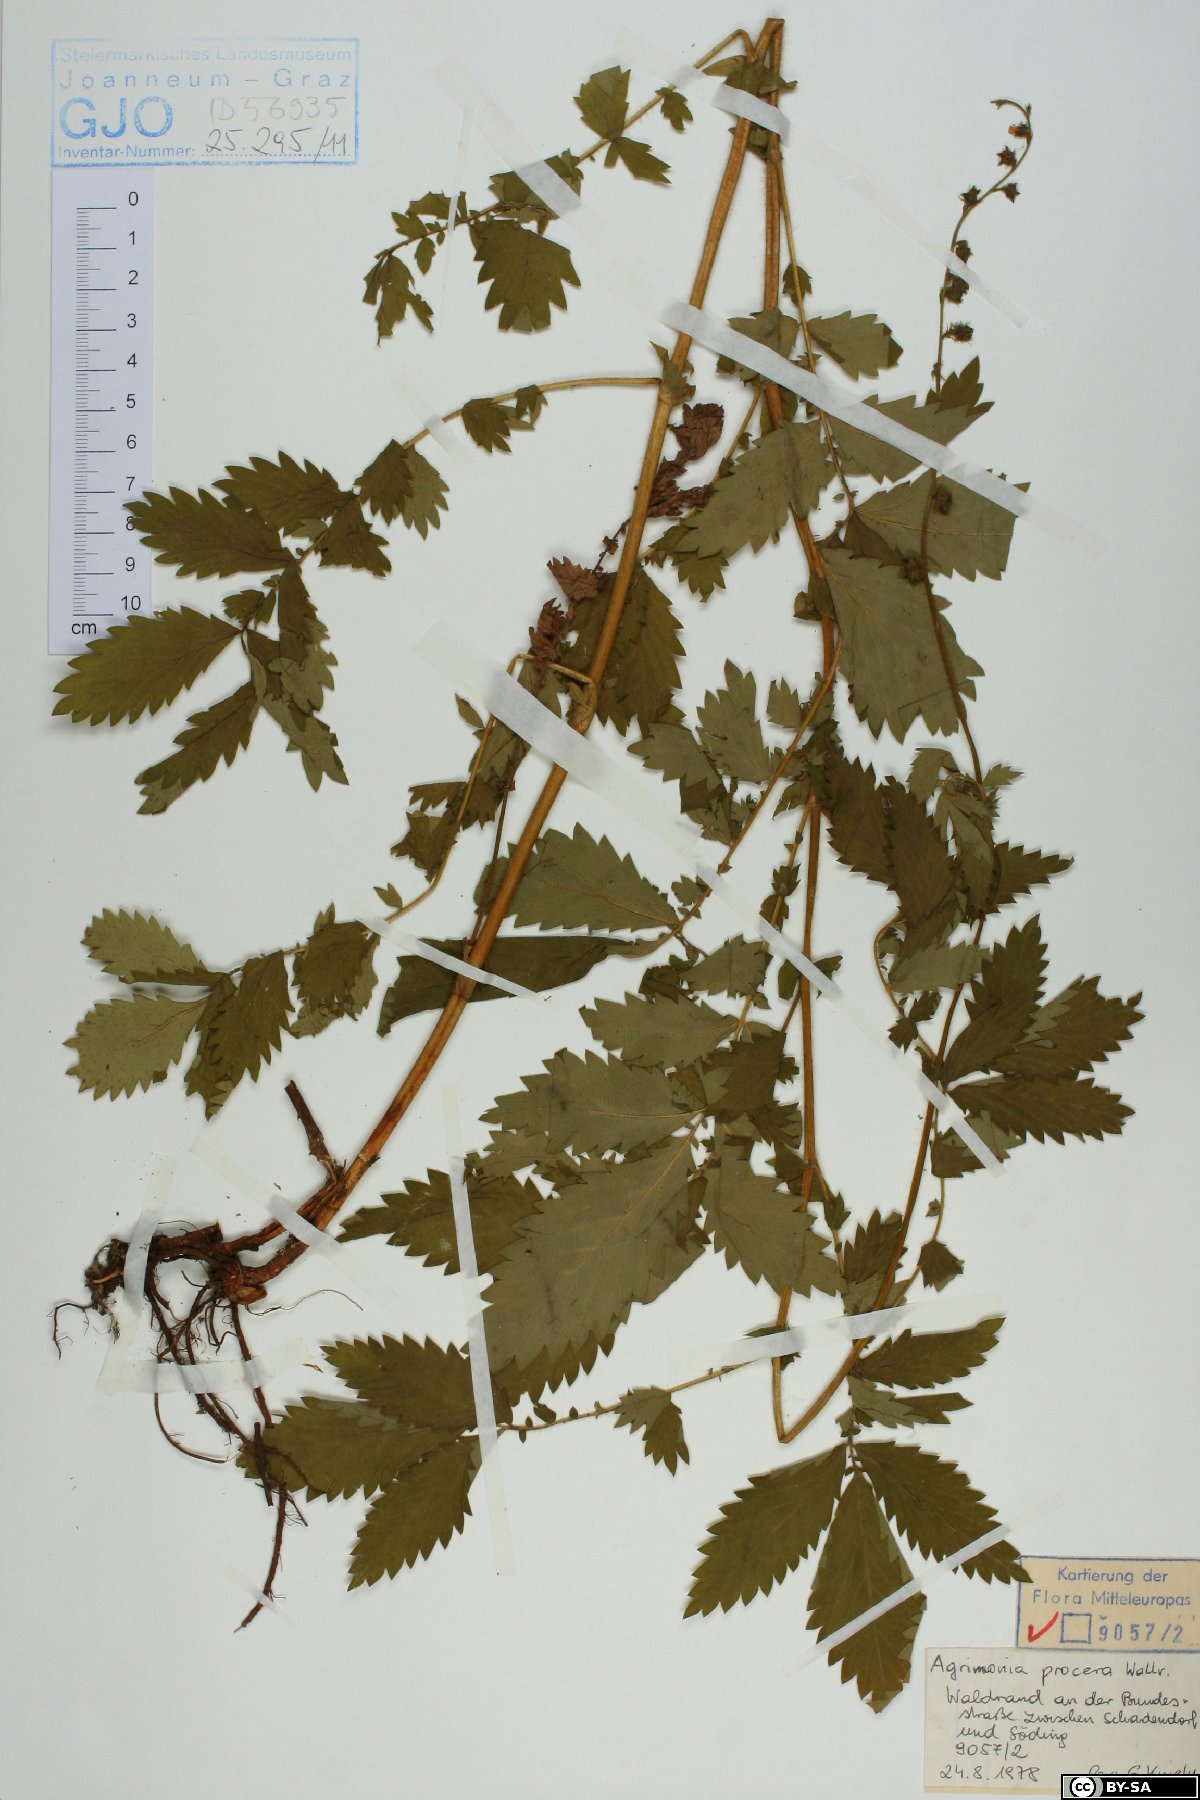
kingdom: Plantae
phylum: Tracheophyta
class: Magnoliopsida
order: Rosales
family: Rosaceae
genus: Agrimonia
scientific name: Agrimonia procera
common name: Fragrant agrimony
